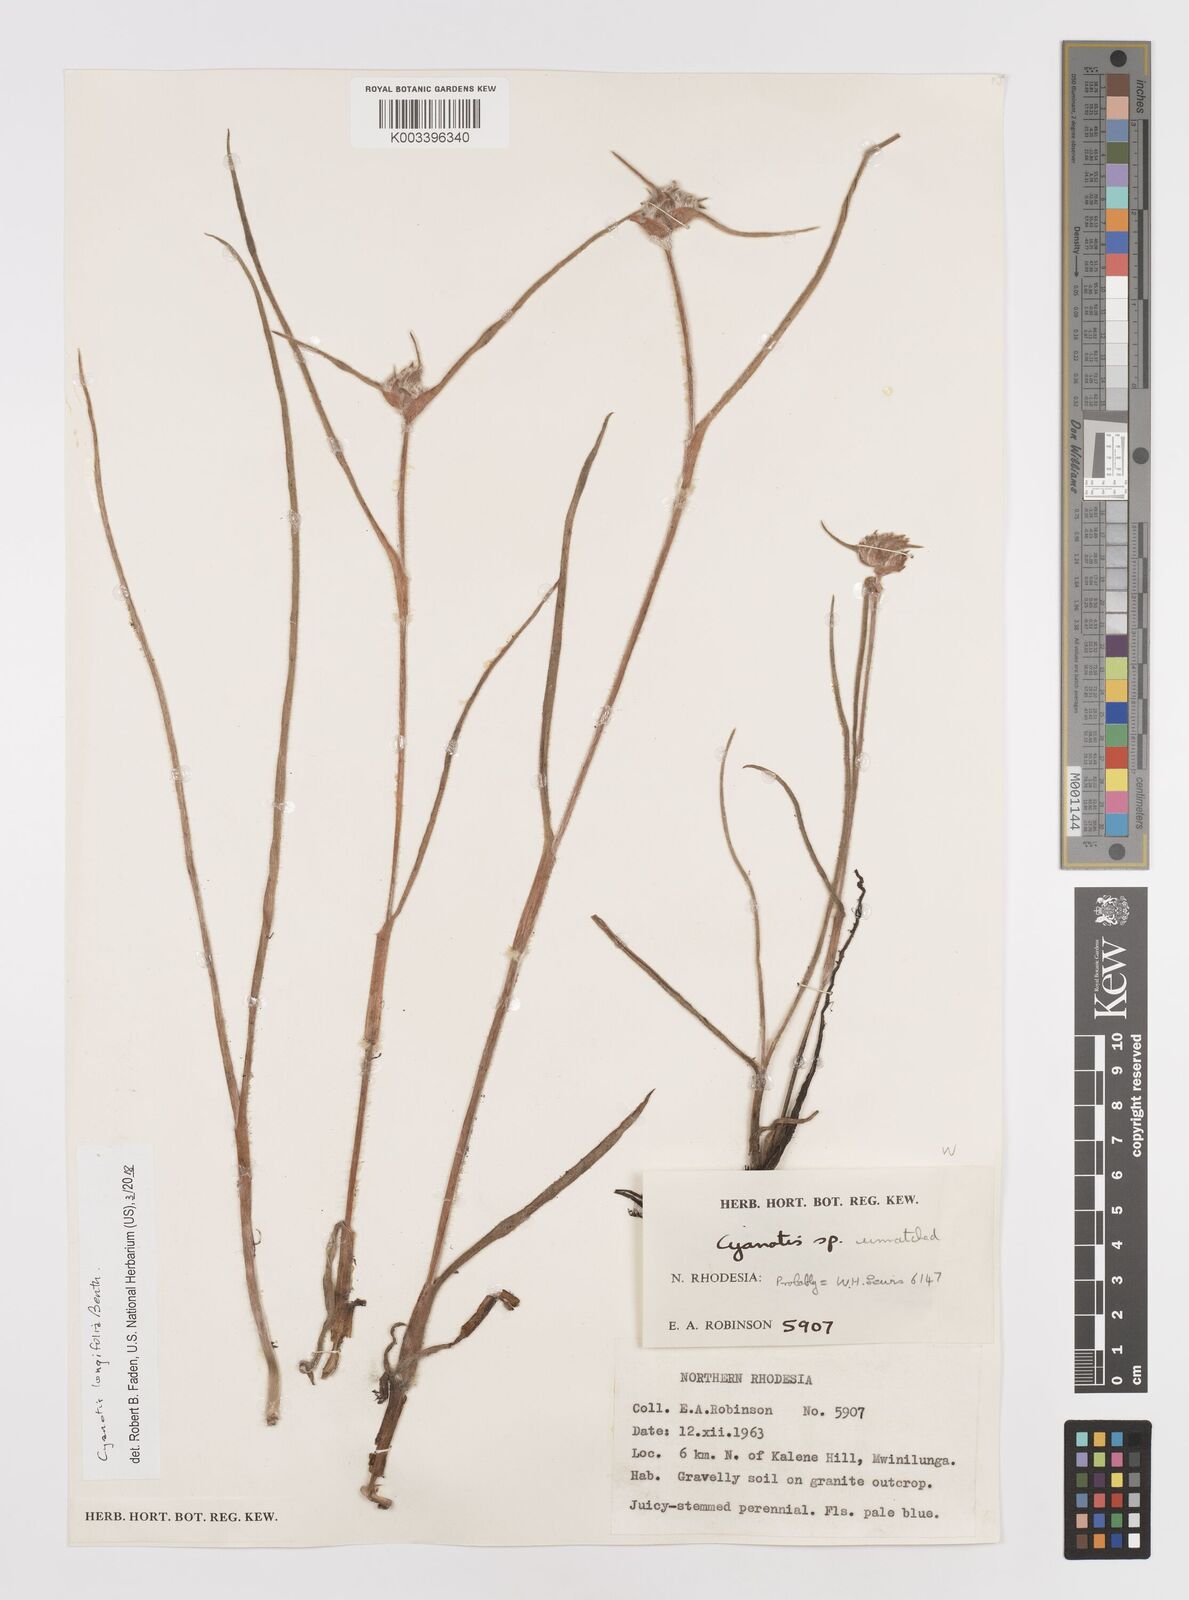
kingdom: Plantae
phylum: Tracheophyta
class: Liliopsida
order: Commelinales
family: Commelinaceae
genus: Cyanotis
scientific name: Cyanotis longifolia
